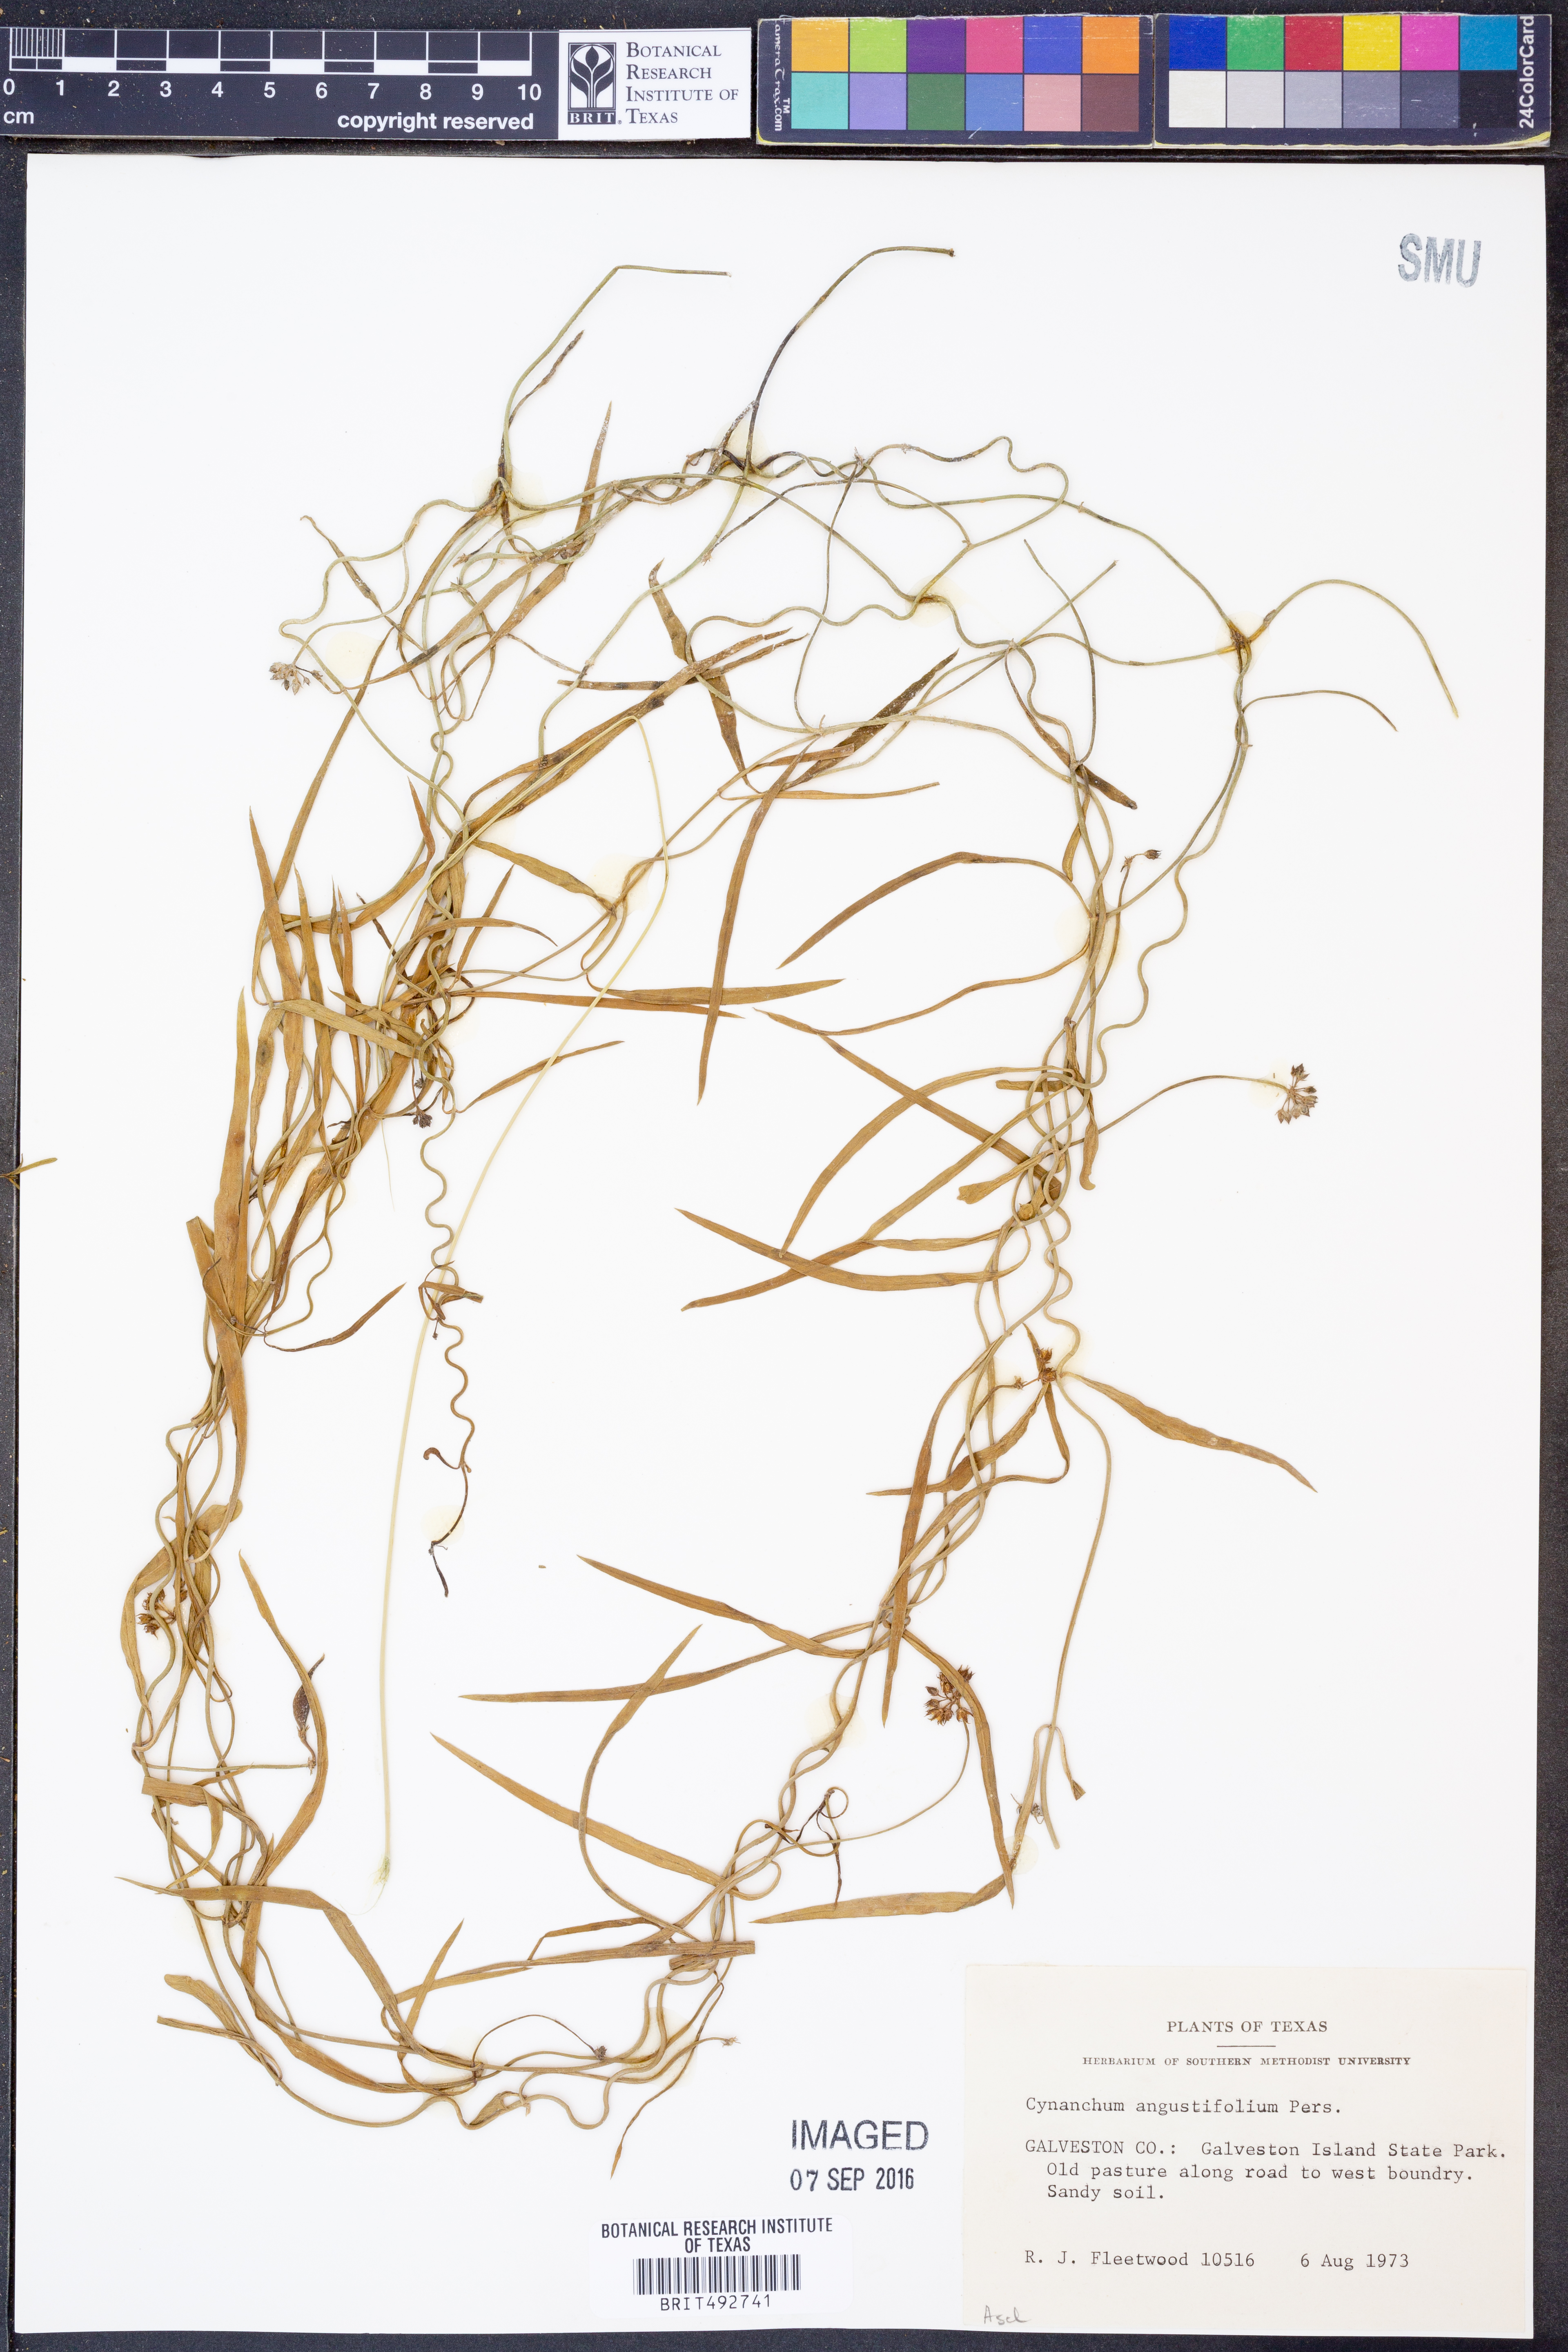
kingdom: Plantae
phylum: Tracheophyta
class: Magnoliopsida
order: Gentianales
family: Apocynaceae
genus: Pattalias
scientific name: Pattalias palustris
